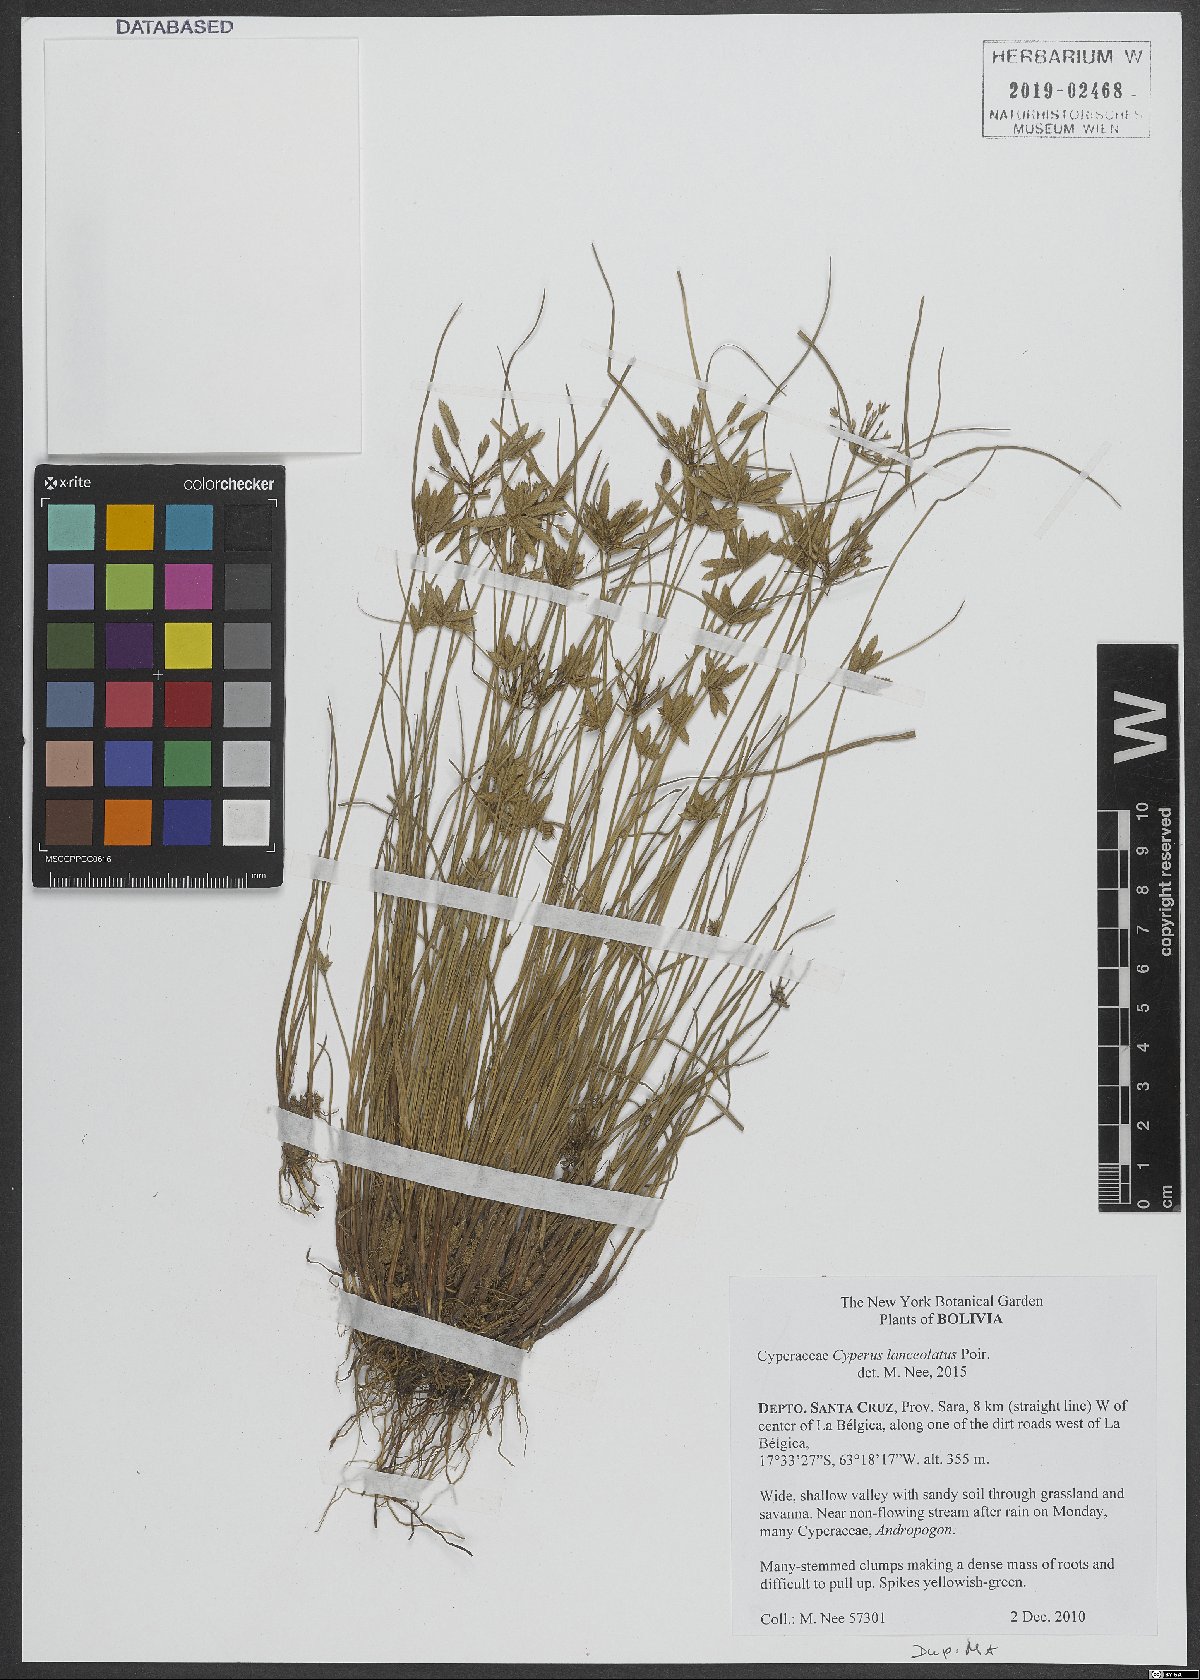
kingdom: Plantae
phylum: Tracheophyta
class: Liliopsida
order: Poales
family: Cyperaceae
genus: Cyperus
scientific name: Cyperus lanceolatus
